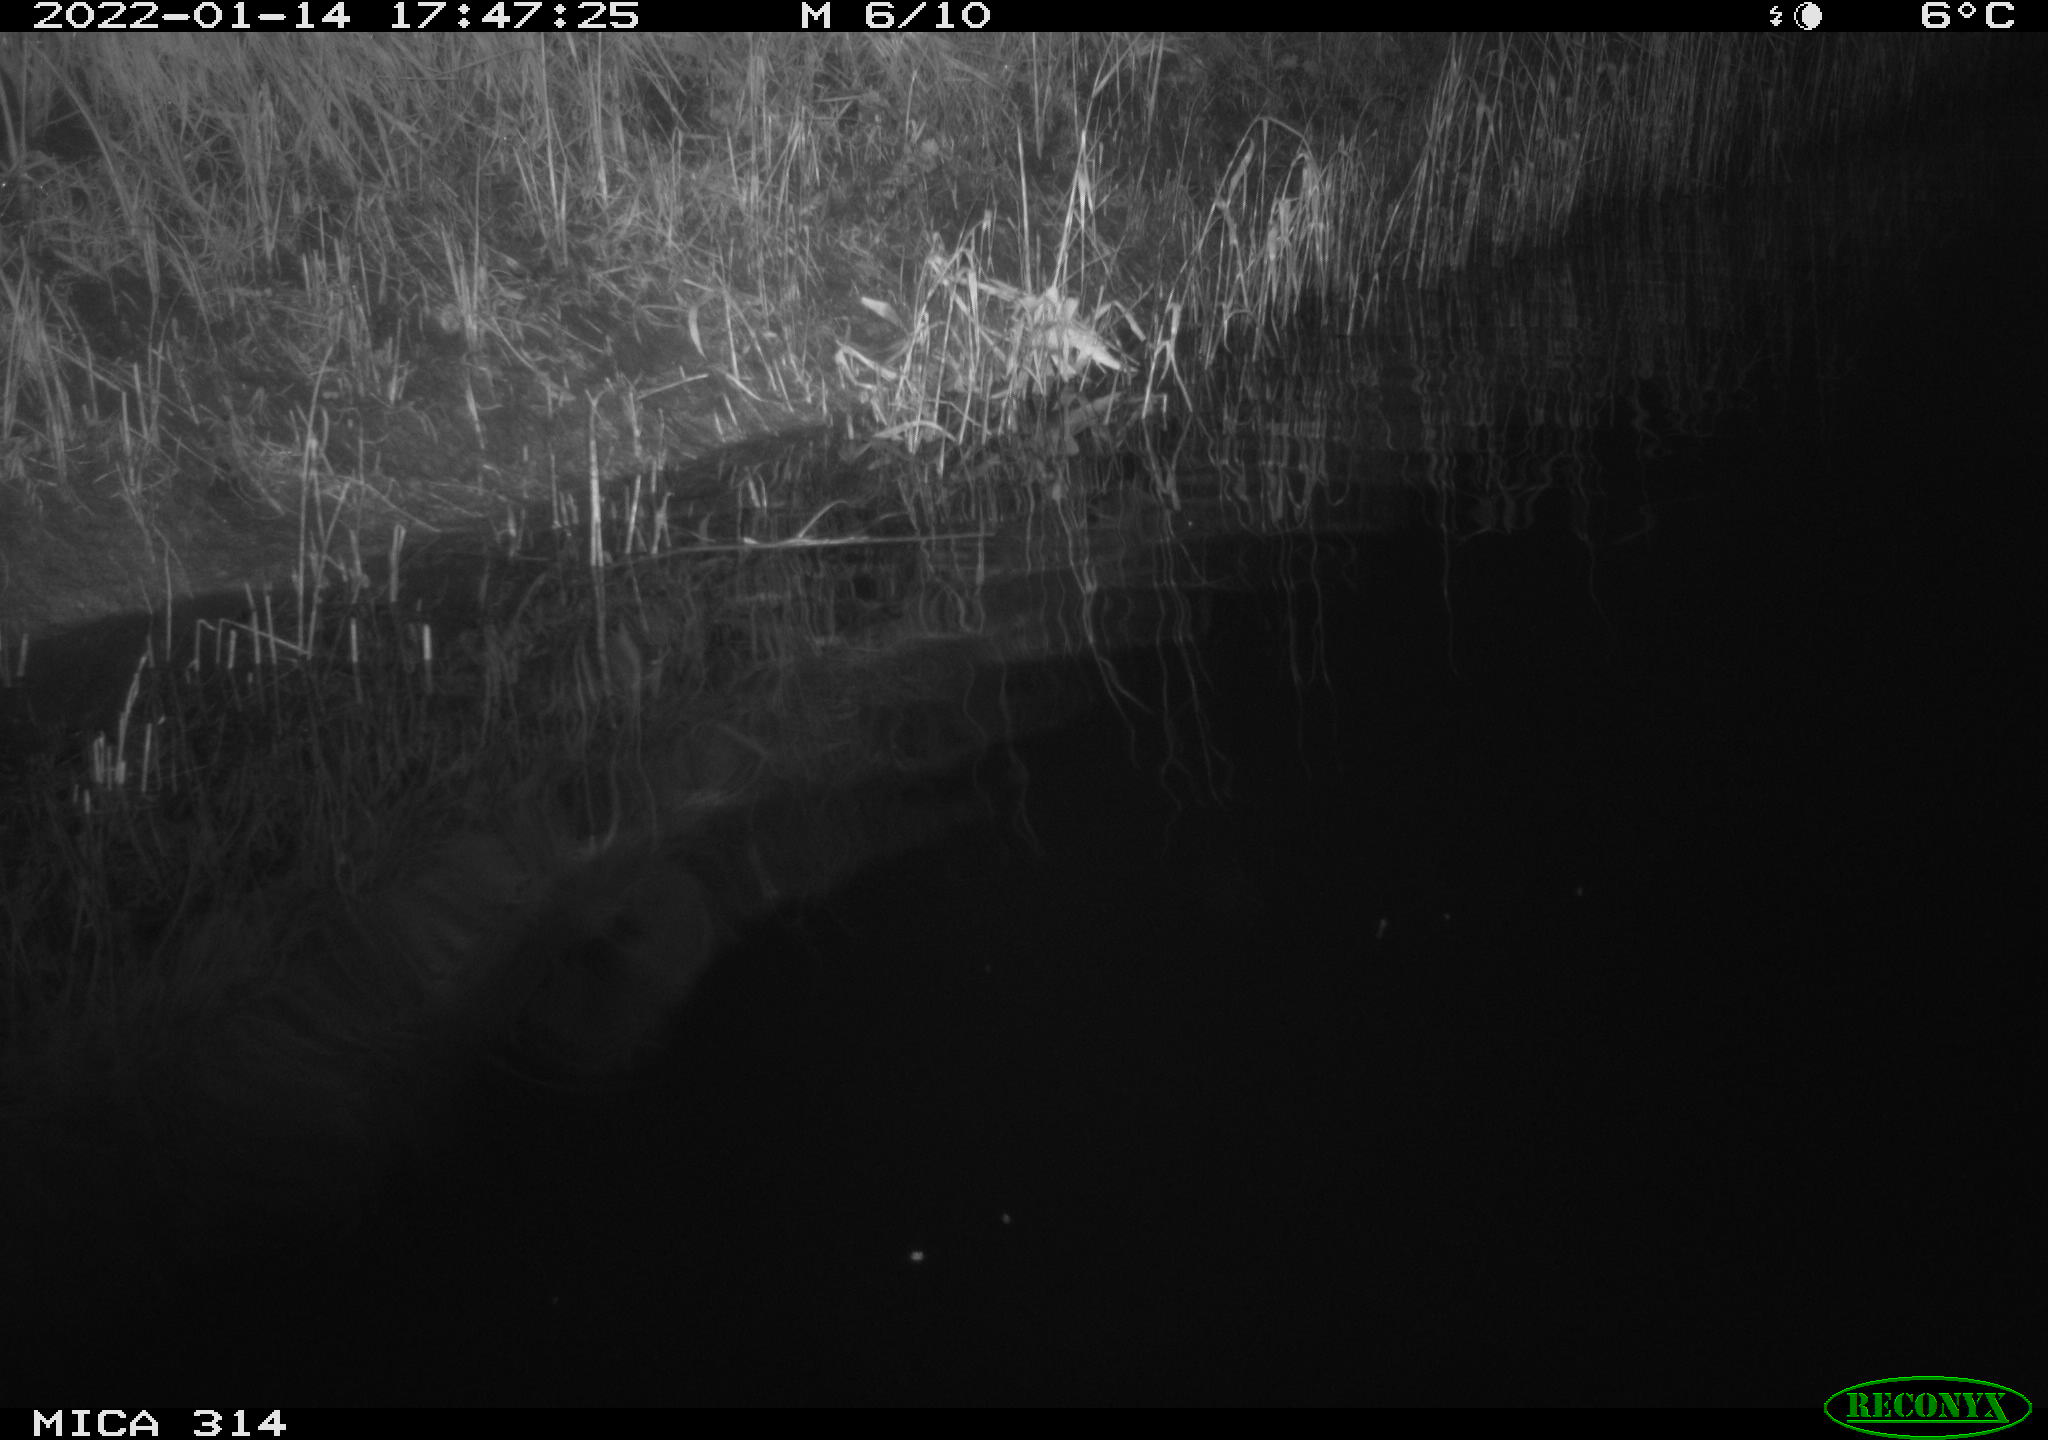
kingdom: Animalia
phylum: Chordata
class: Aves
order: Gruiformes
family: Rallidae
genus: Gallinula
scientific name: Gallinula chloropus
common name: Common moorhen
